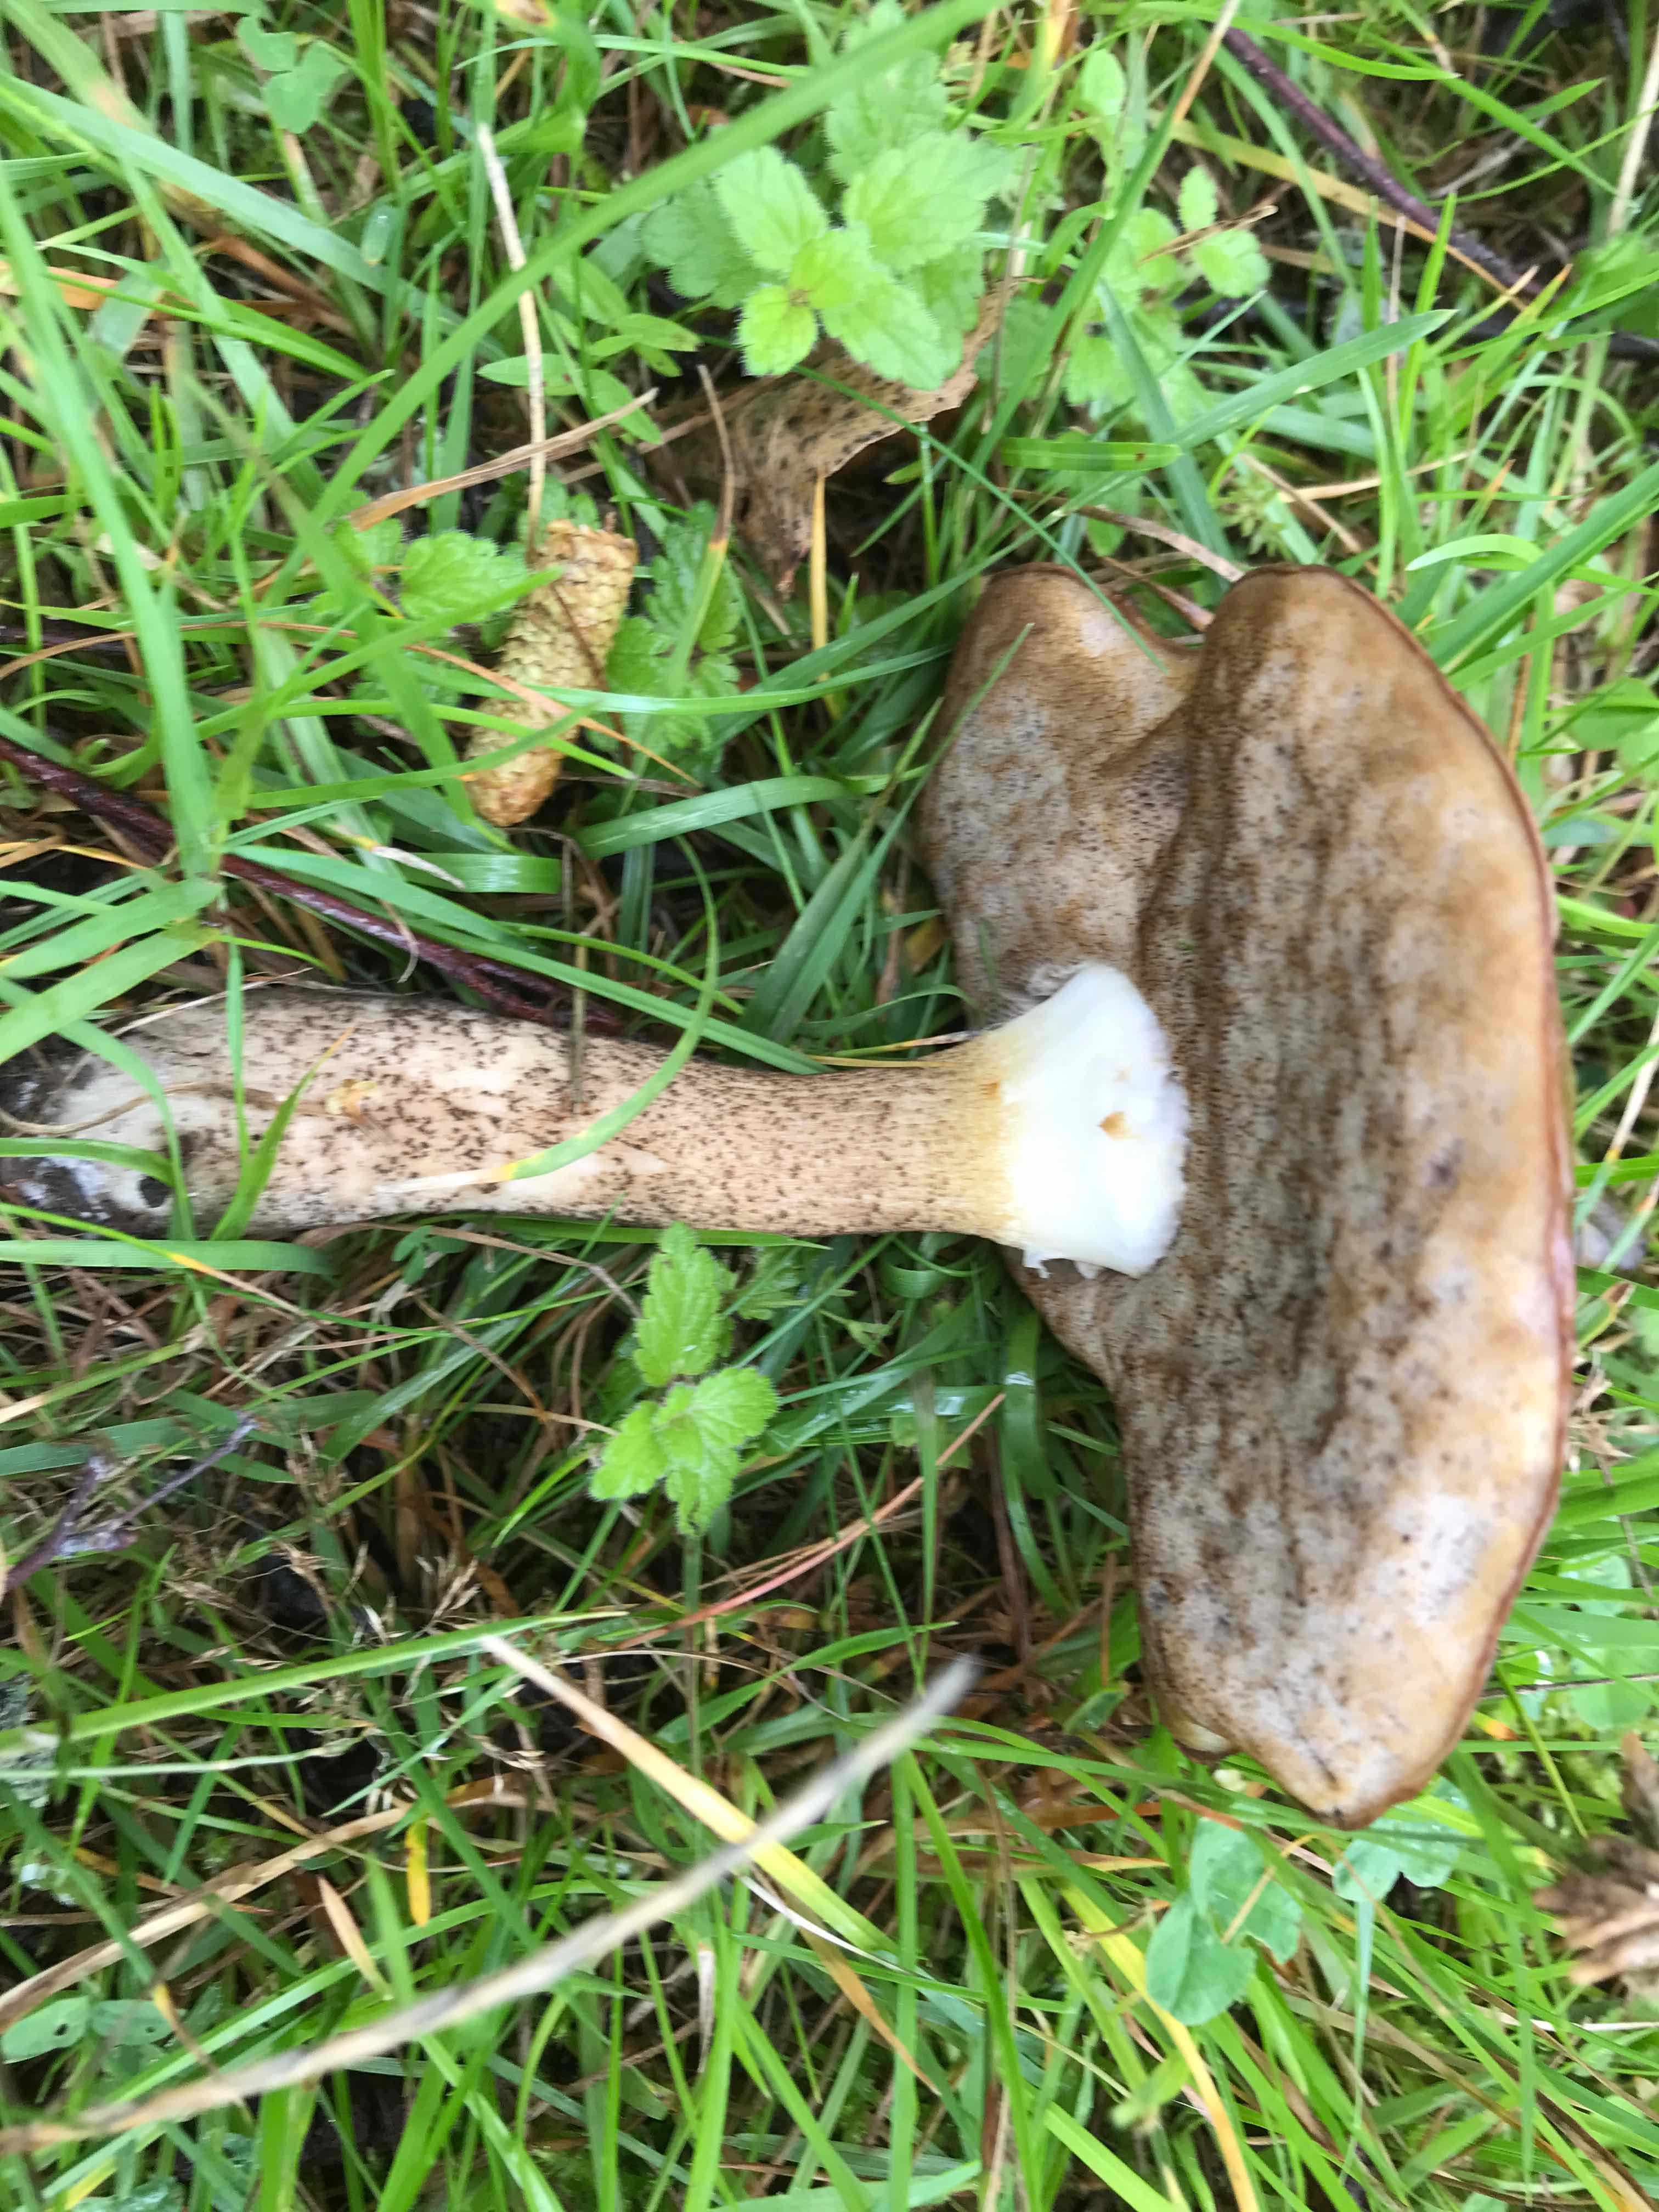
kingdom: Fungi
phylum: Basidiomycota
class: Agaricomycetes
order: Boletales
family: Boletaceae
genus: Leccinum
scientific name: Leccinum scabrum
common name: brun skælrørhat
